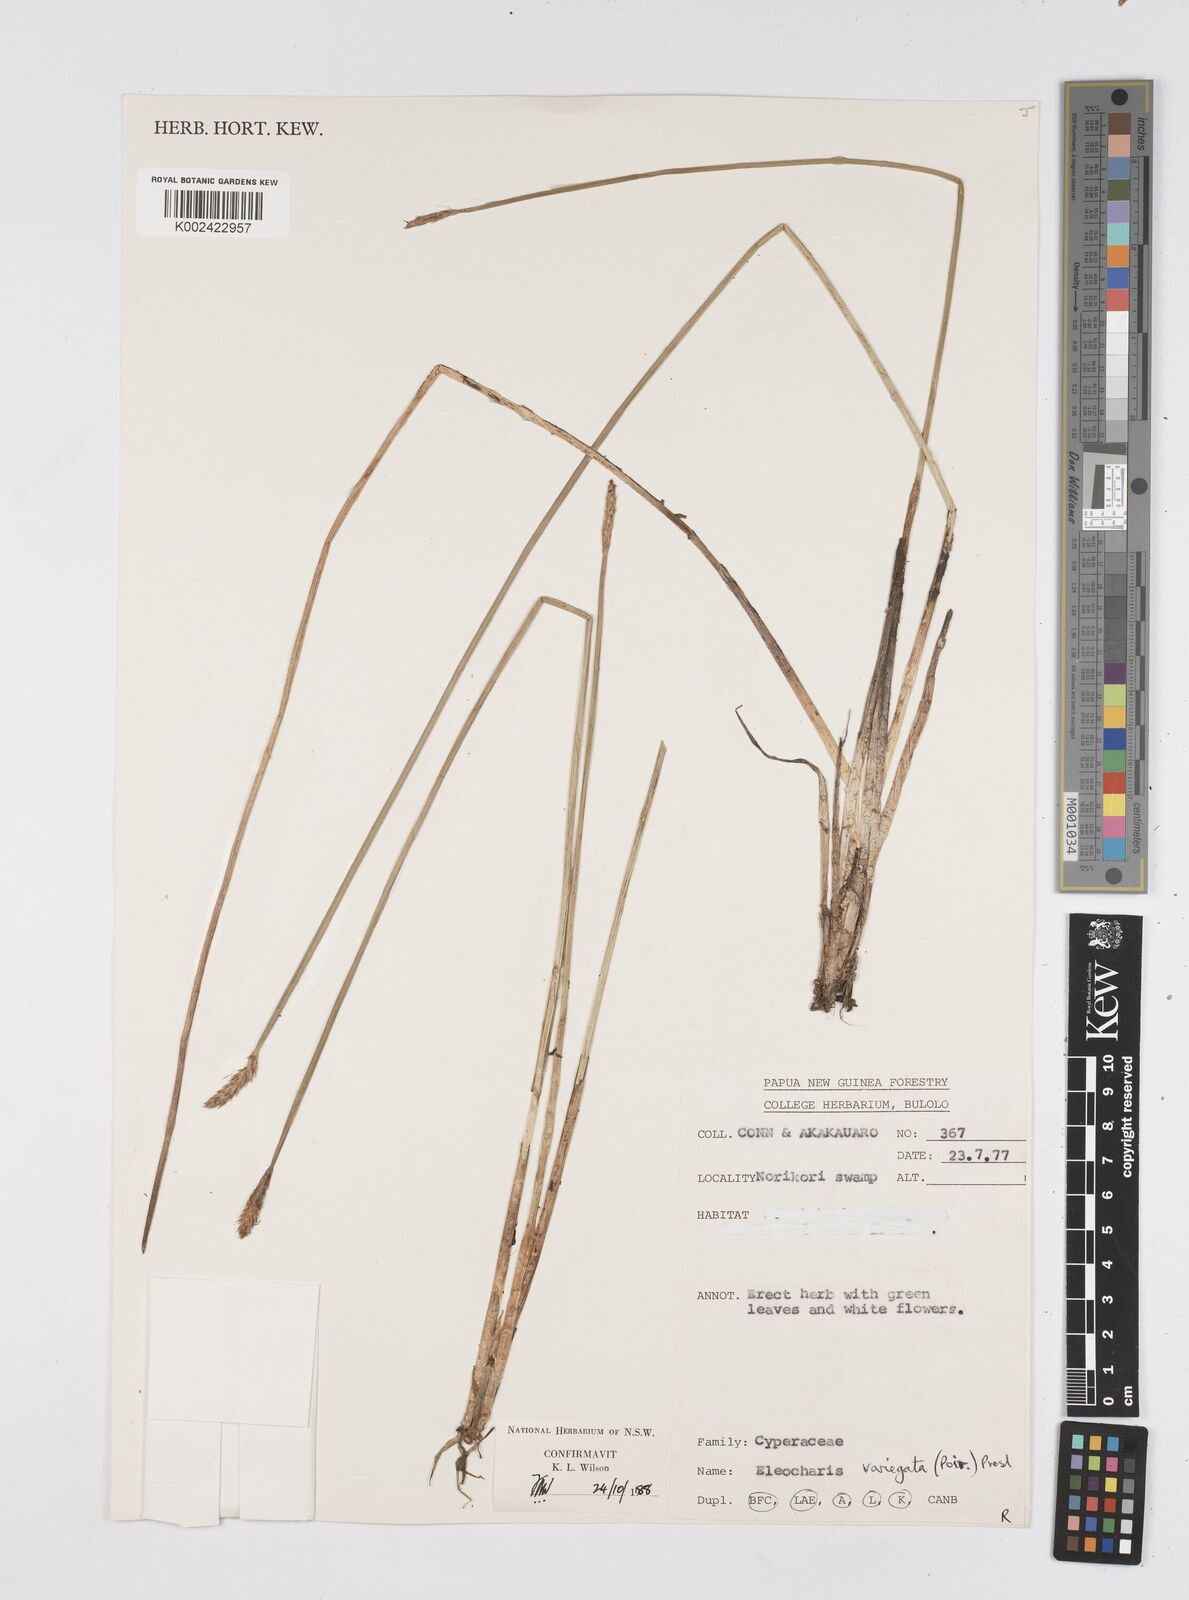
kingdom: Plantae
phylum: Tracheophyta
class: Liliopsida
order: Poales
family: Cyperaceae
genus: Eleocharis
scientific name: Eleocharis variegata
